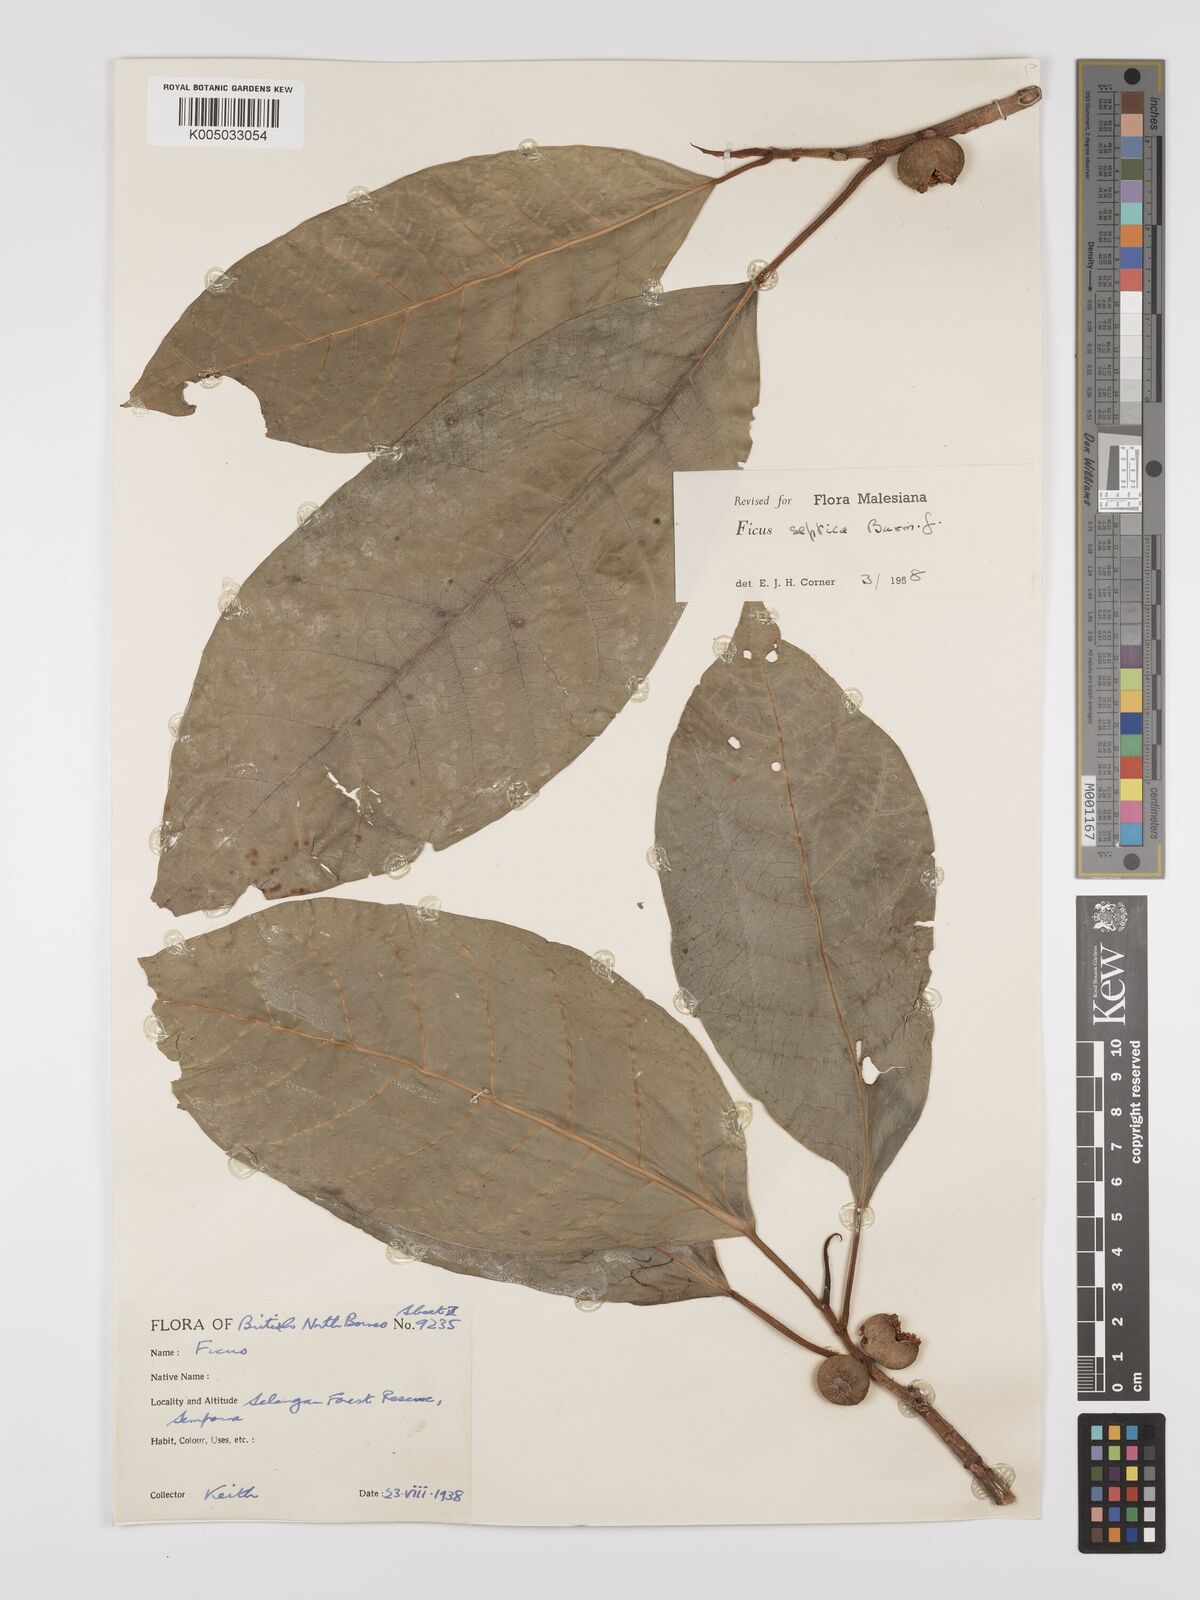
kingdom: Plantae
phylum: Tracheophyta
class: Magnoliopsida
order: Rosales
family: Moraceae
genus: Ficus
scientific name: Ficus septica
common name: Septic fig
